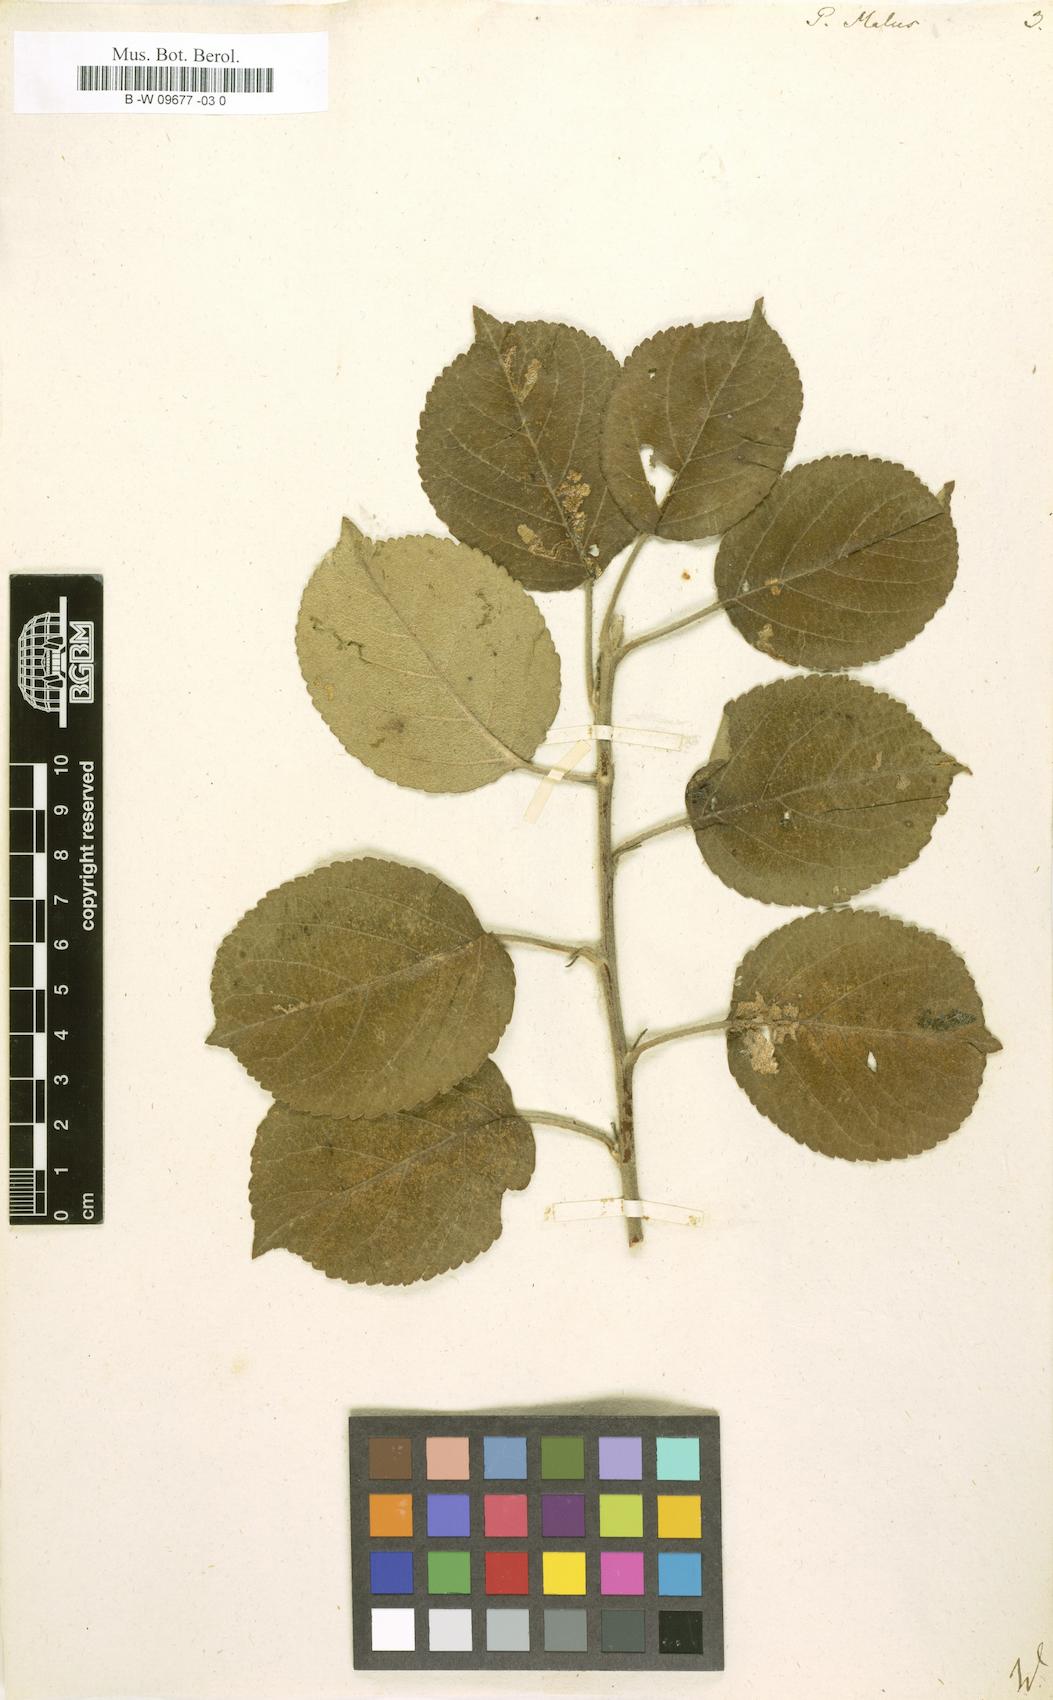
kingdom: Plantae
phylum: Tracheophyta
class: Magnoliopsida
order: Rosales
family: Rosaceae
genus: Malus
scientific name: Malus
